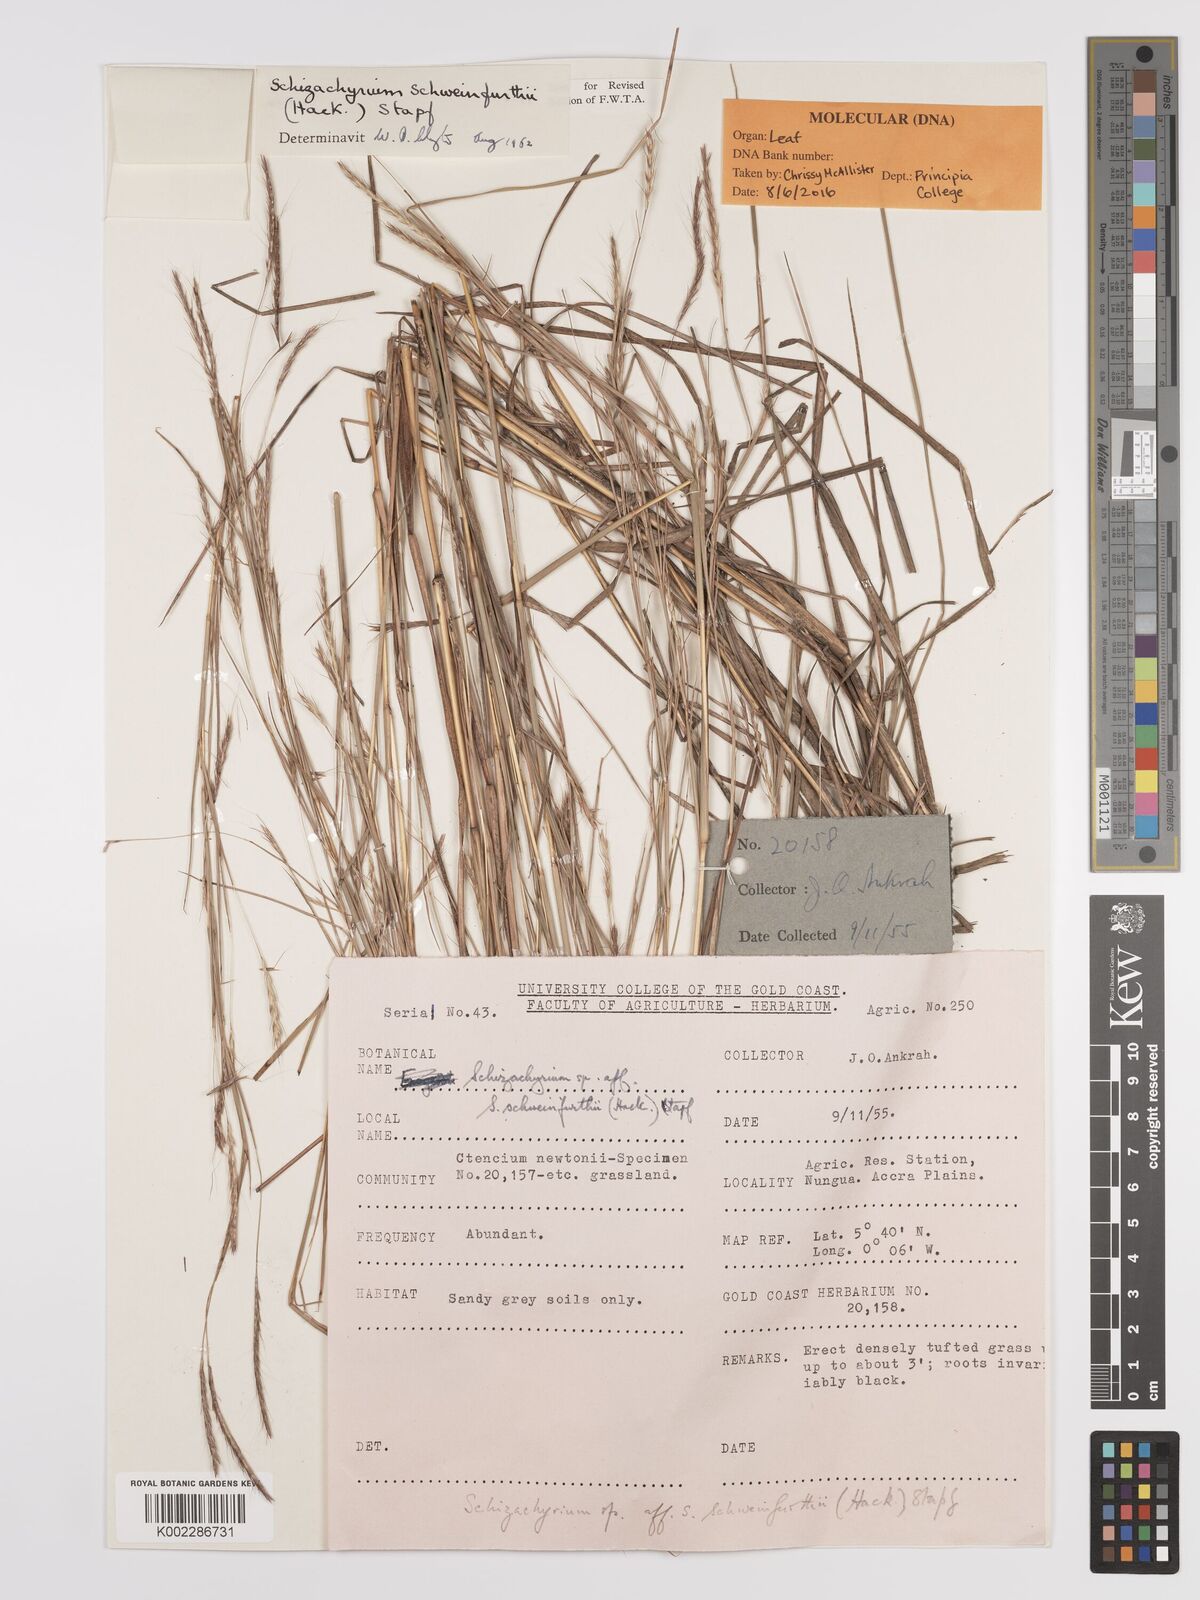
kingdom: Plantae
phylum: Tracheophyta
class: Liliopsida
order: Poales
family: Poaceae
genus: Andropogon
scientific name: Andropogon schweinfurthii
